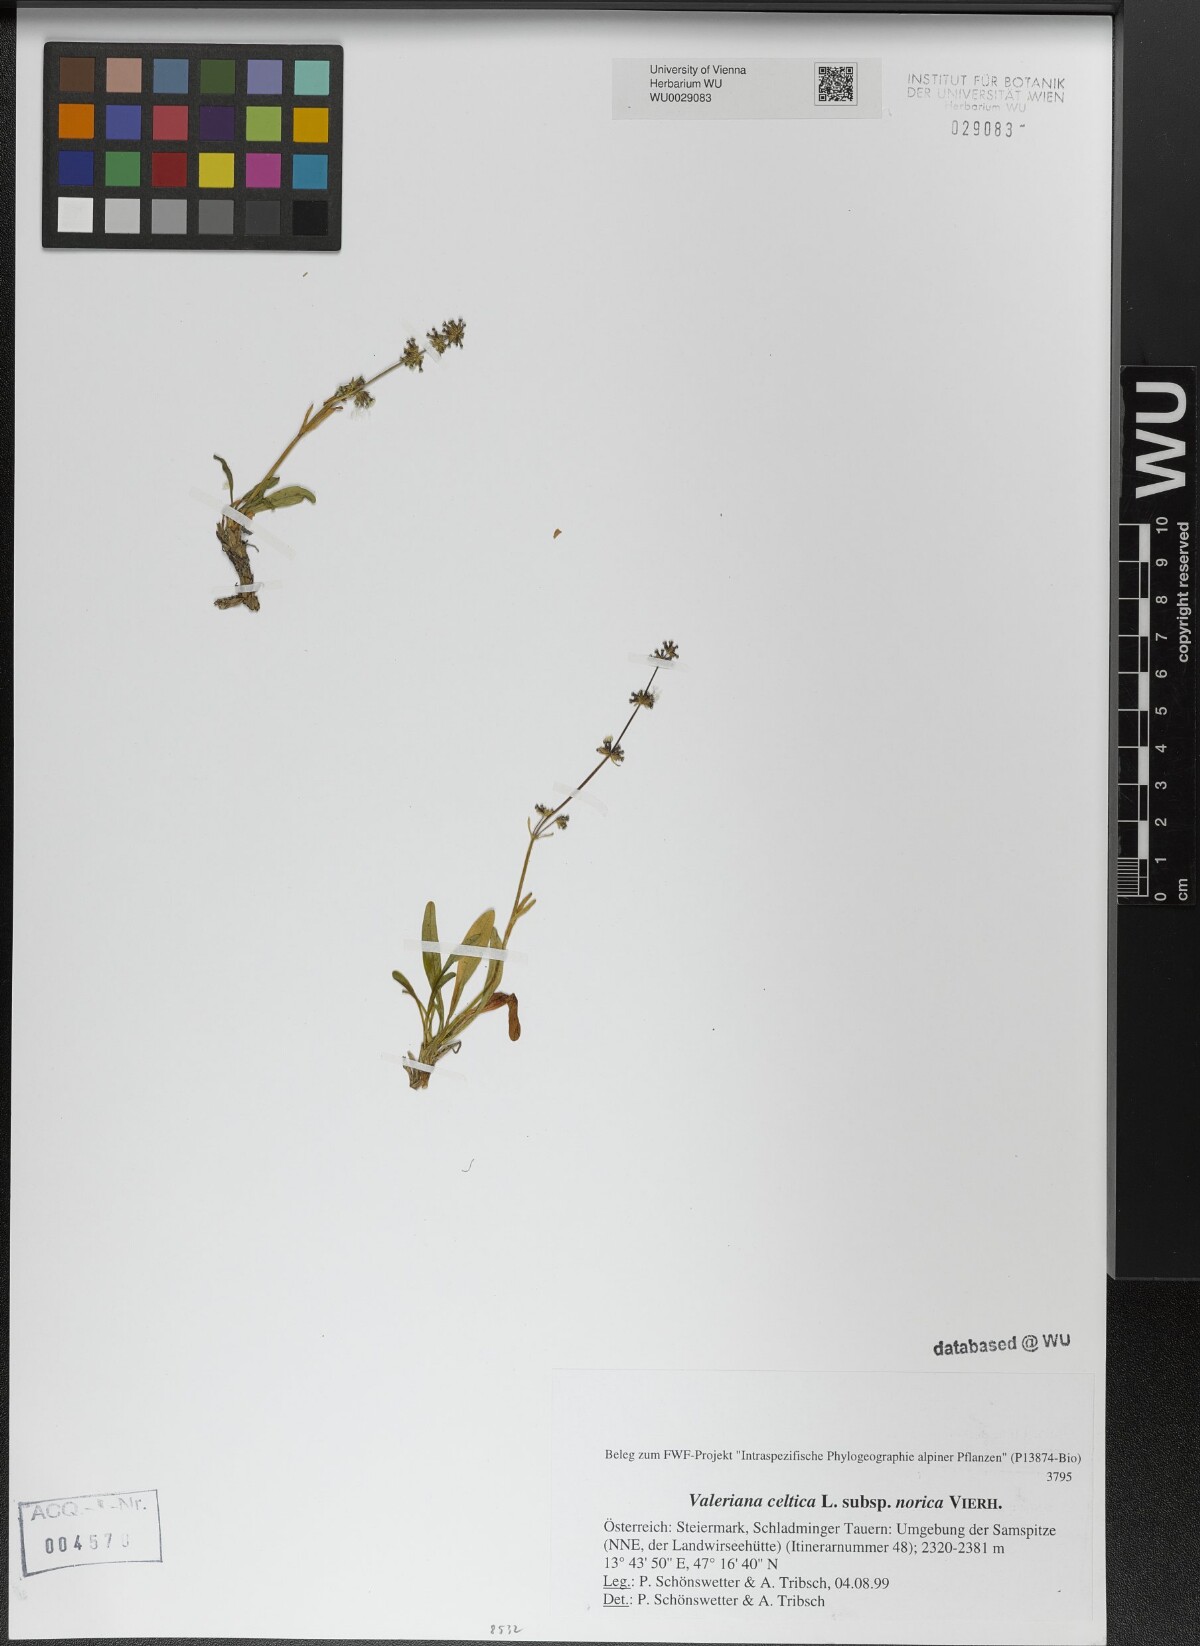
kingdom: Plantae
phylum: Tracheophyta
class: Magnoliopsida
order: Dipsacales
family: Caprifoliaceae
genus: Valeriana
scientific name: Valeriana celtica
